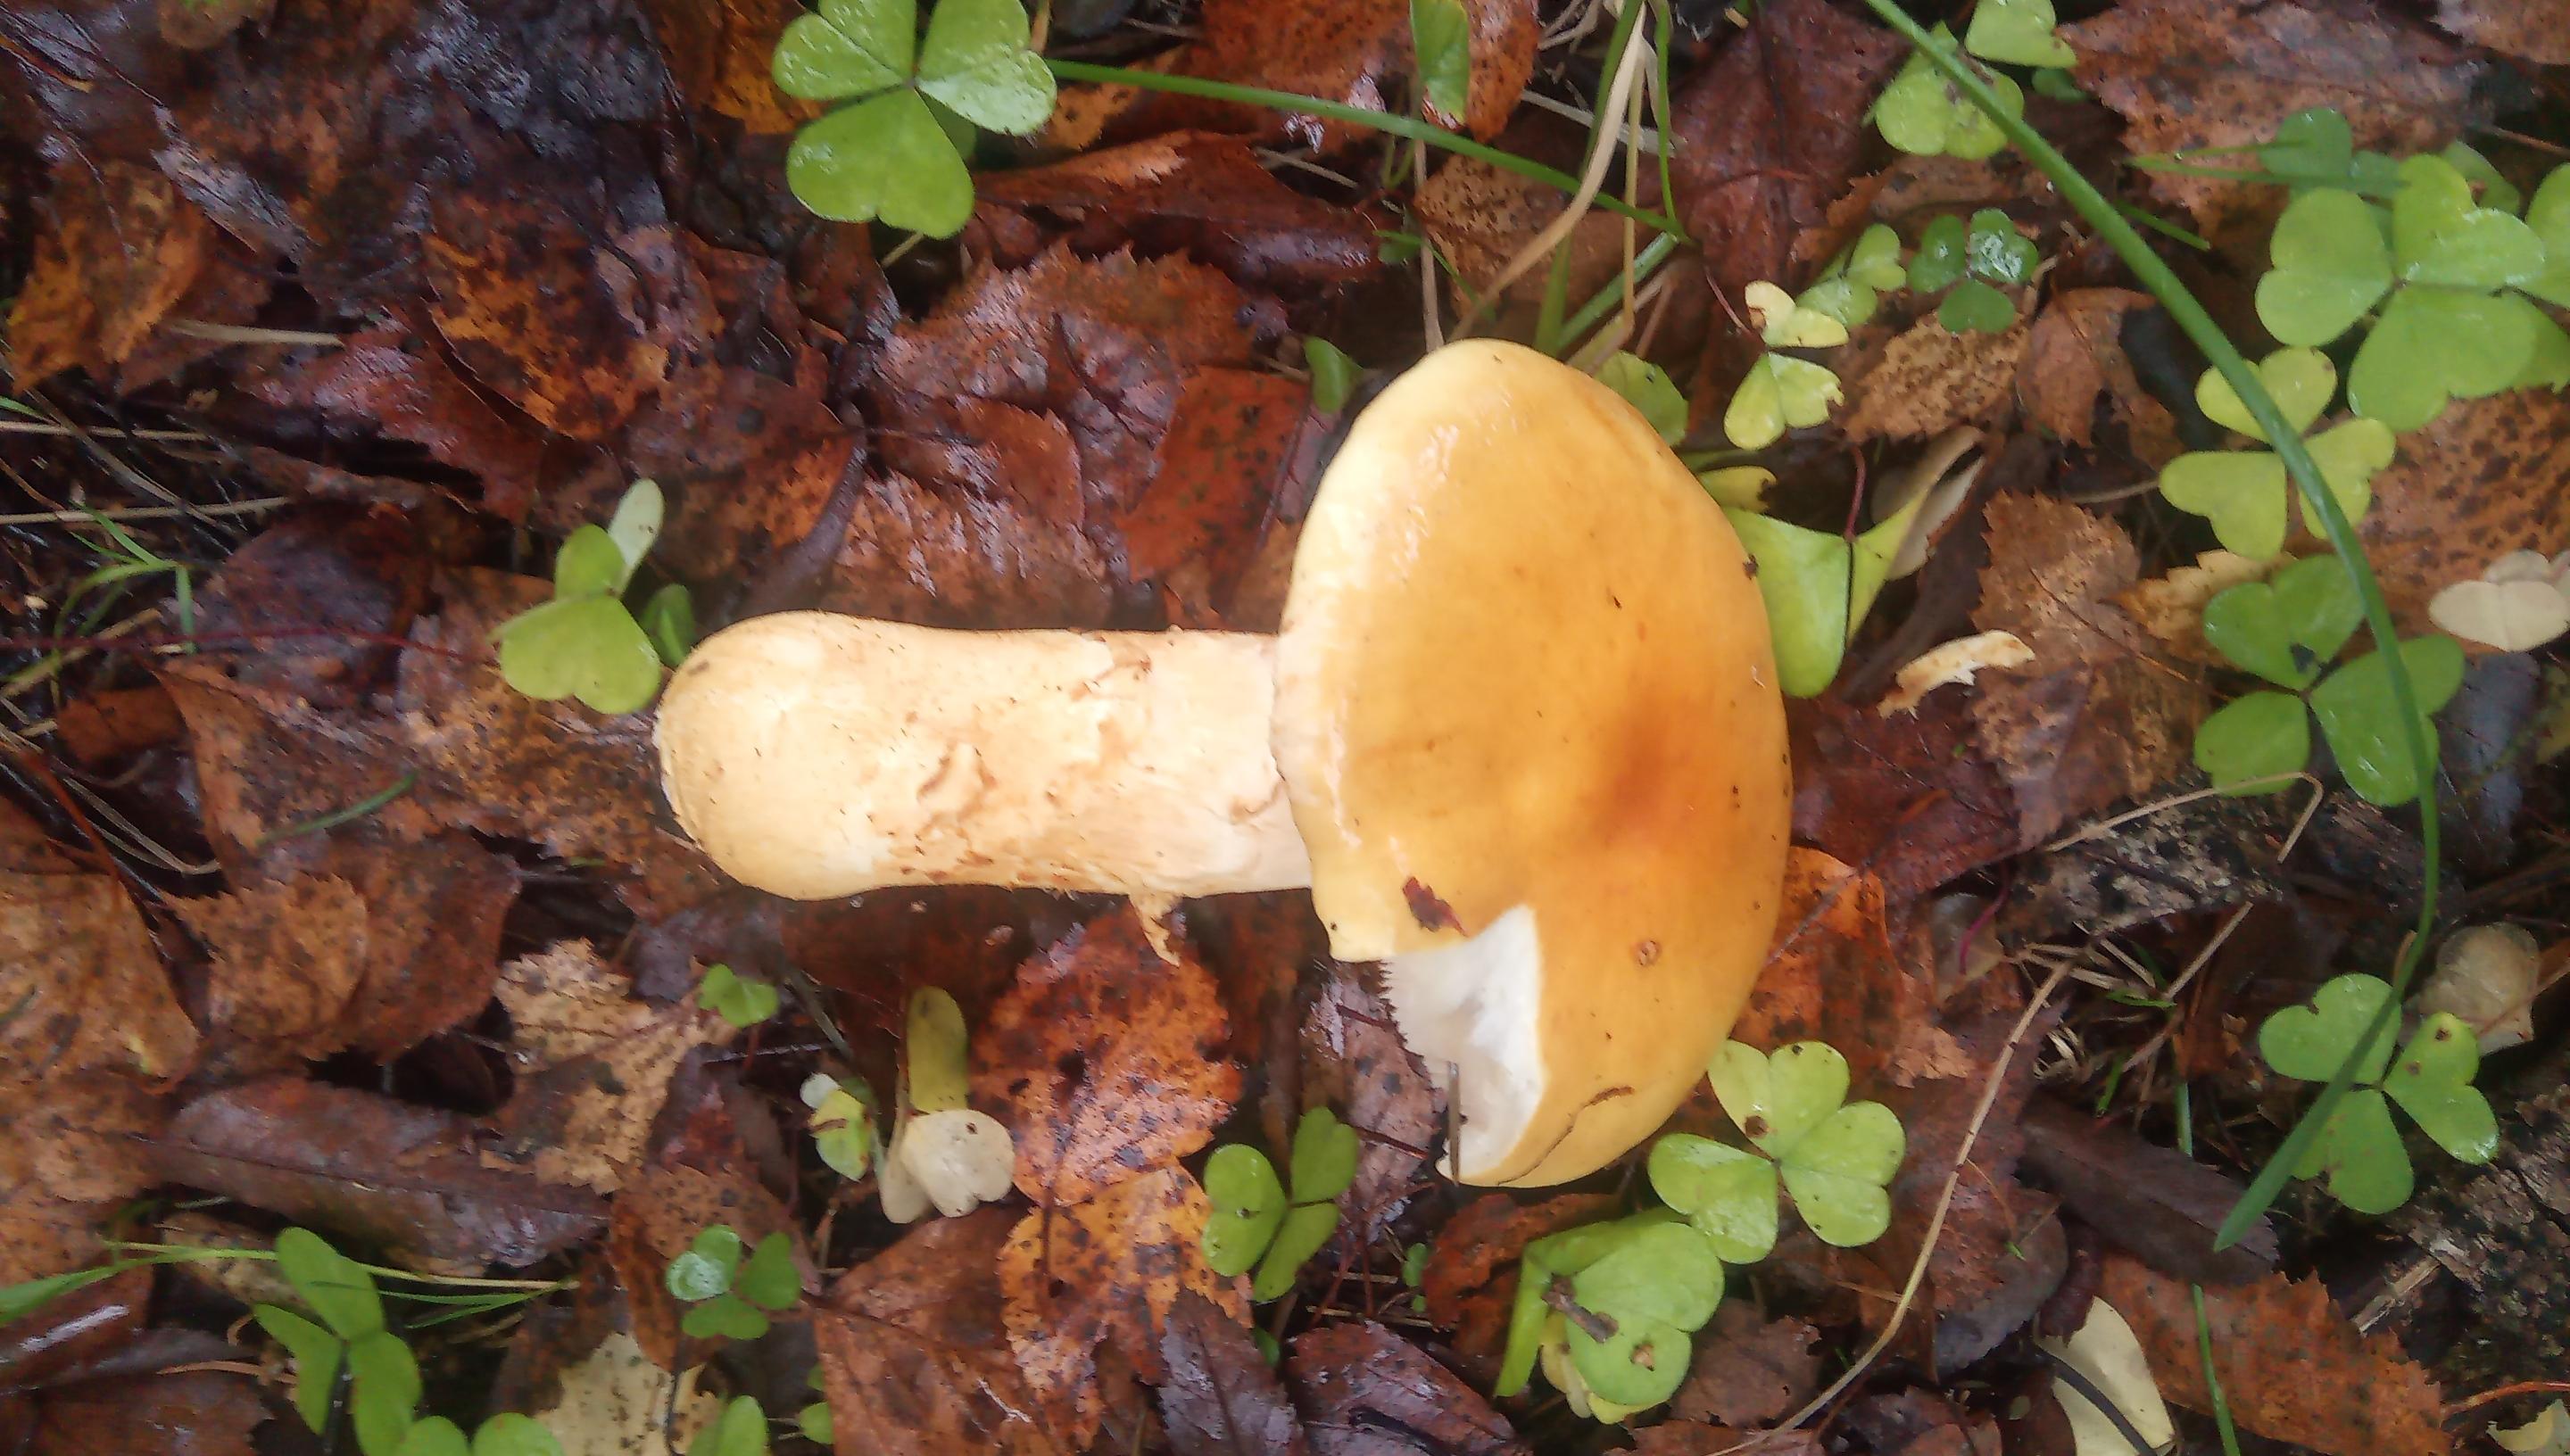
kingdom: Fungi
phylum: Basidiomycota
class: Agaricomycetes
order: Agaricales
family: Cortinariaceae
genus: Phlegmacium
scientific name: Phlegmacium triumphans
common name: gulbæltet slørhat
